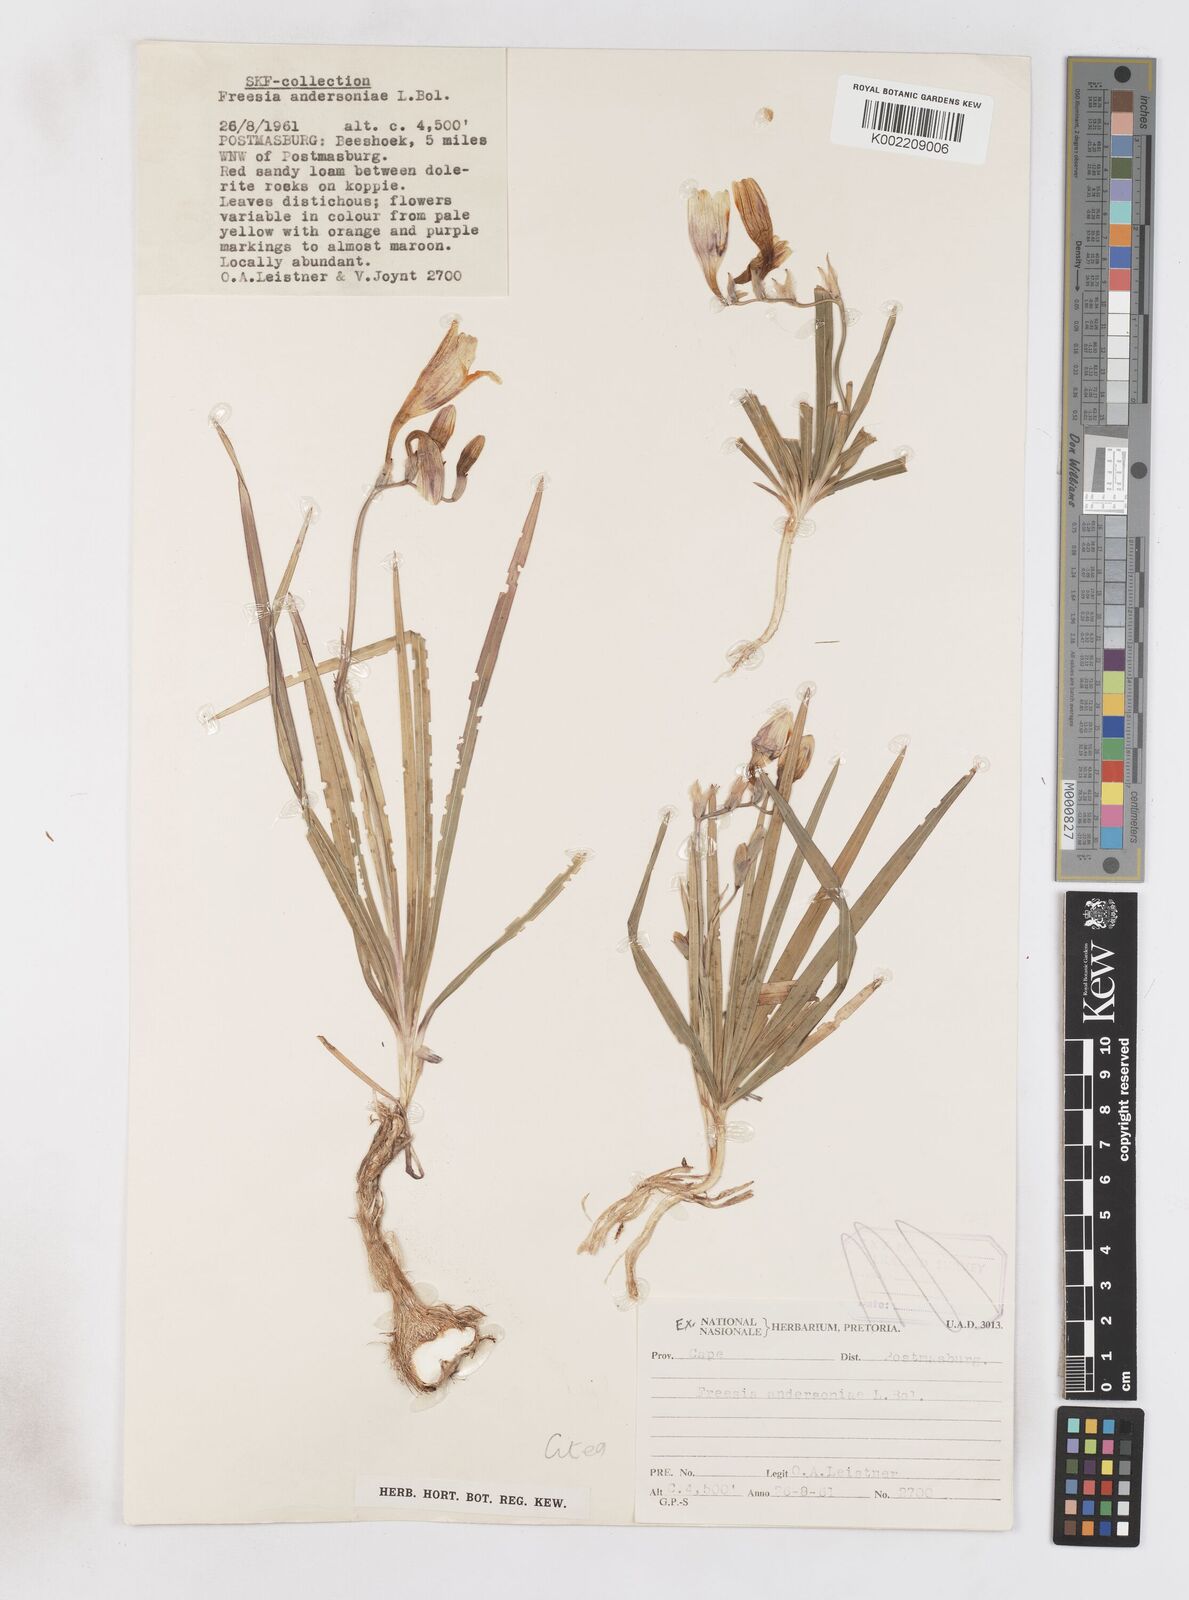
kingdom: Plantae
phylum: Tracheophyta
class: Liliopsida
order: Asparagales
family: Iridaceae
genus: Freesia
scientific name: Freesia andersoniae
